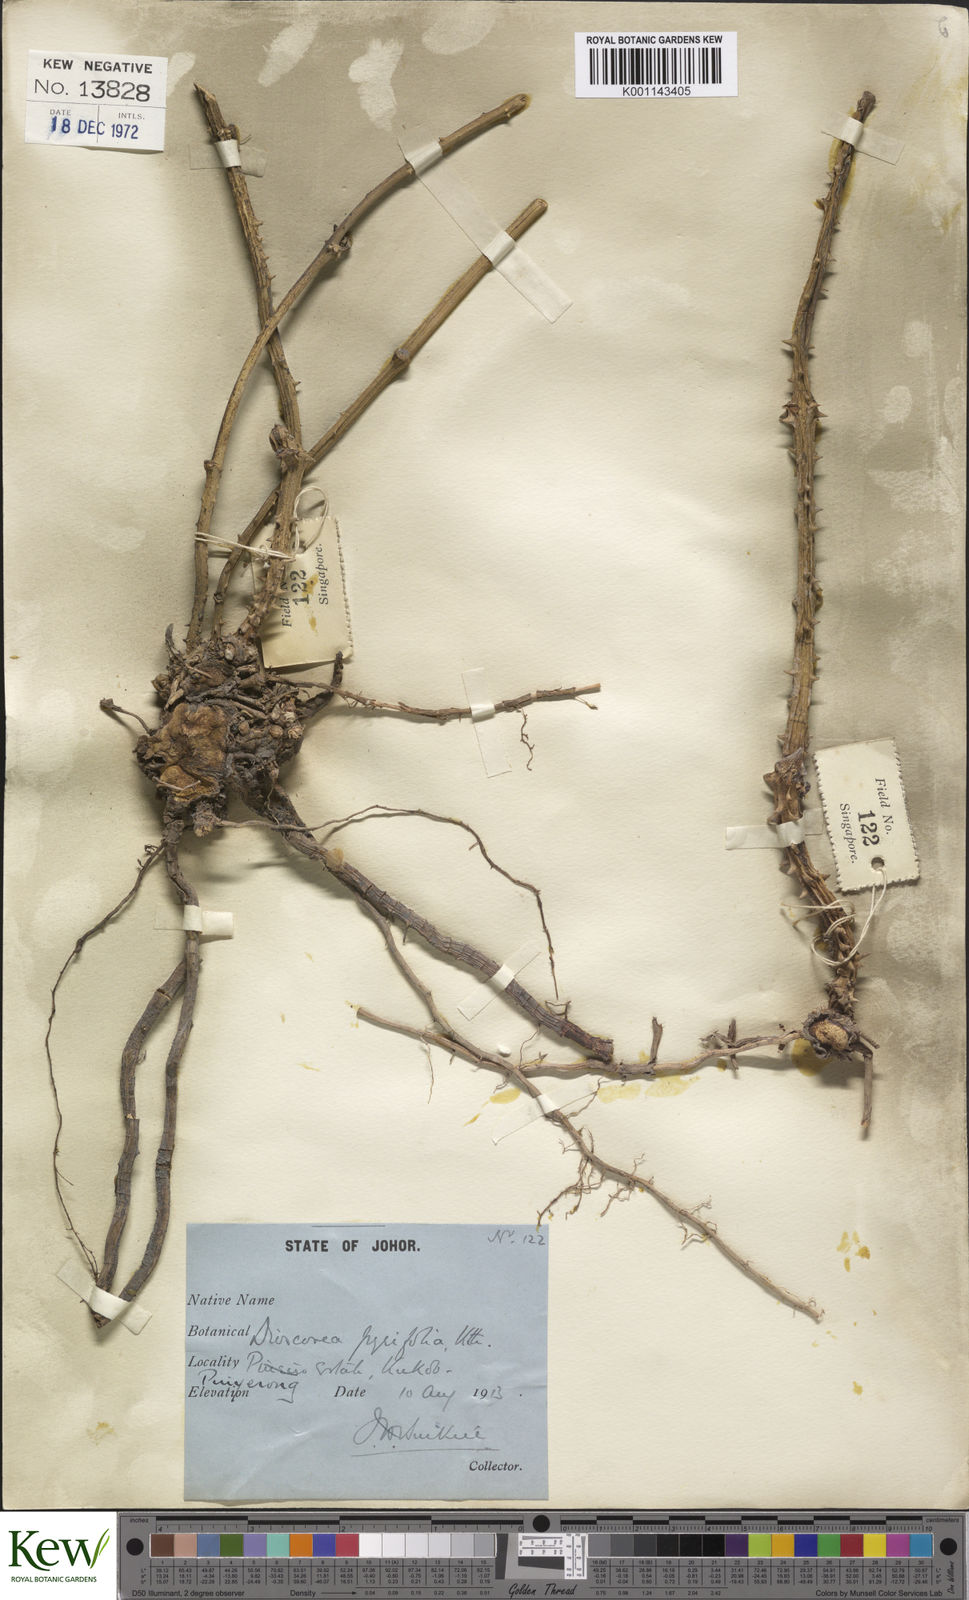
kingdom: Plantae
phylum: Tracheophyta
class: Liliopsida
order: Dioscoreales
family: Dioscoreaceae
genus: Dioscorea
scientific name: Dioscorea pyrifolia
